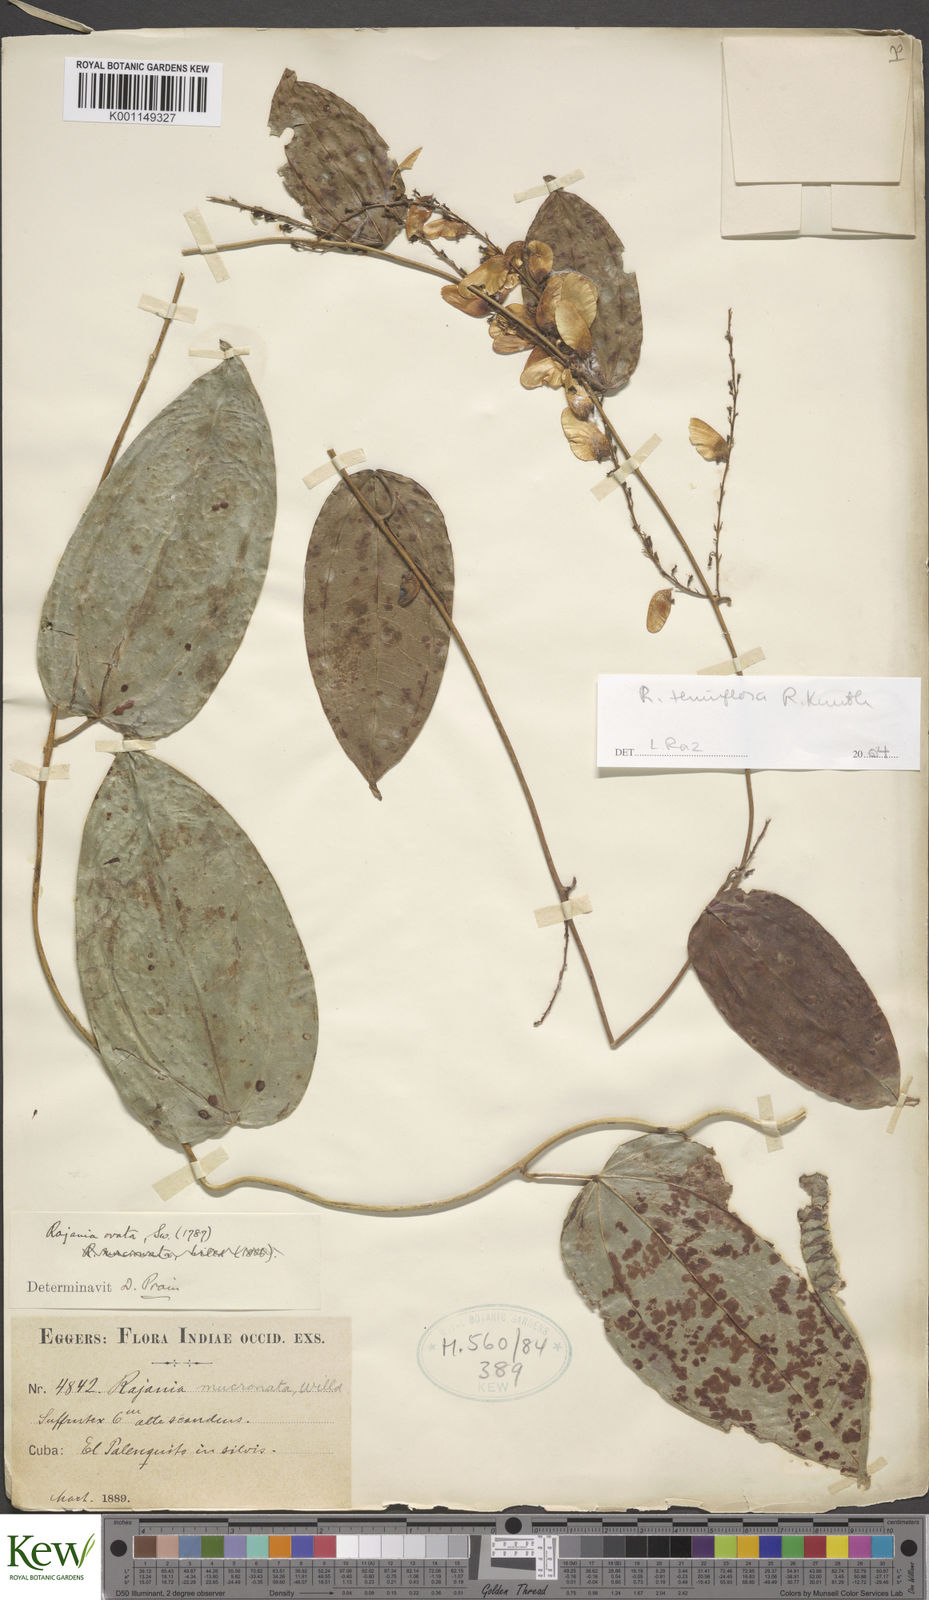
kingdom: Plantae
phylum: Tracheophyta
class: Liliopsida
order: Dioscoreales
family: Dioscoreaceae
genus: Dioscorea
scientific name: Dioscorea bulbifera
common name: Air yam
